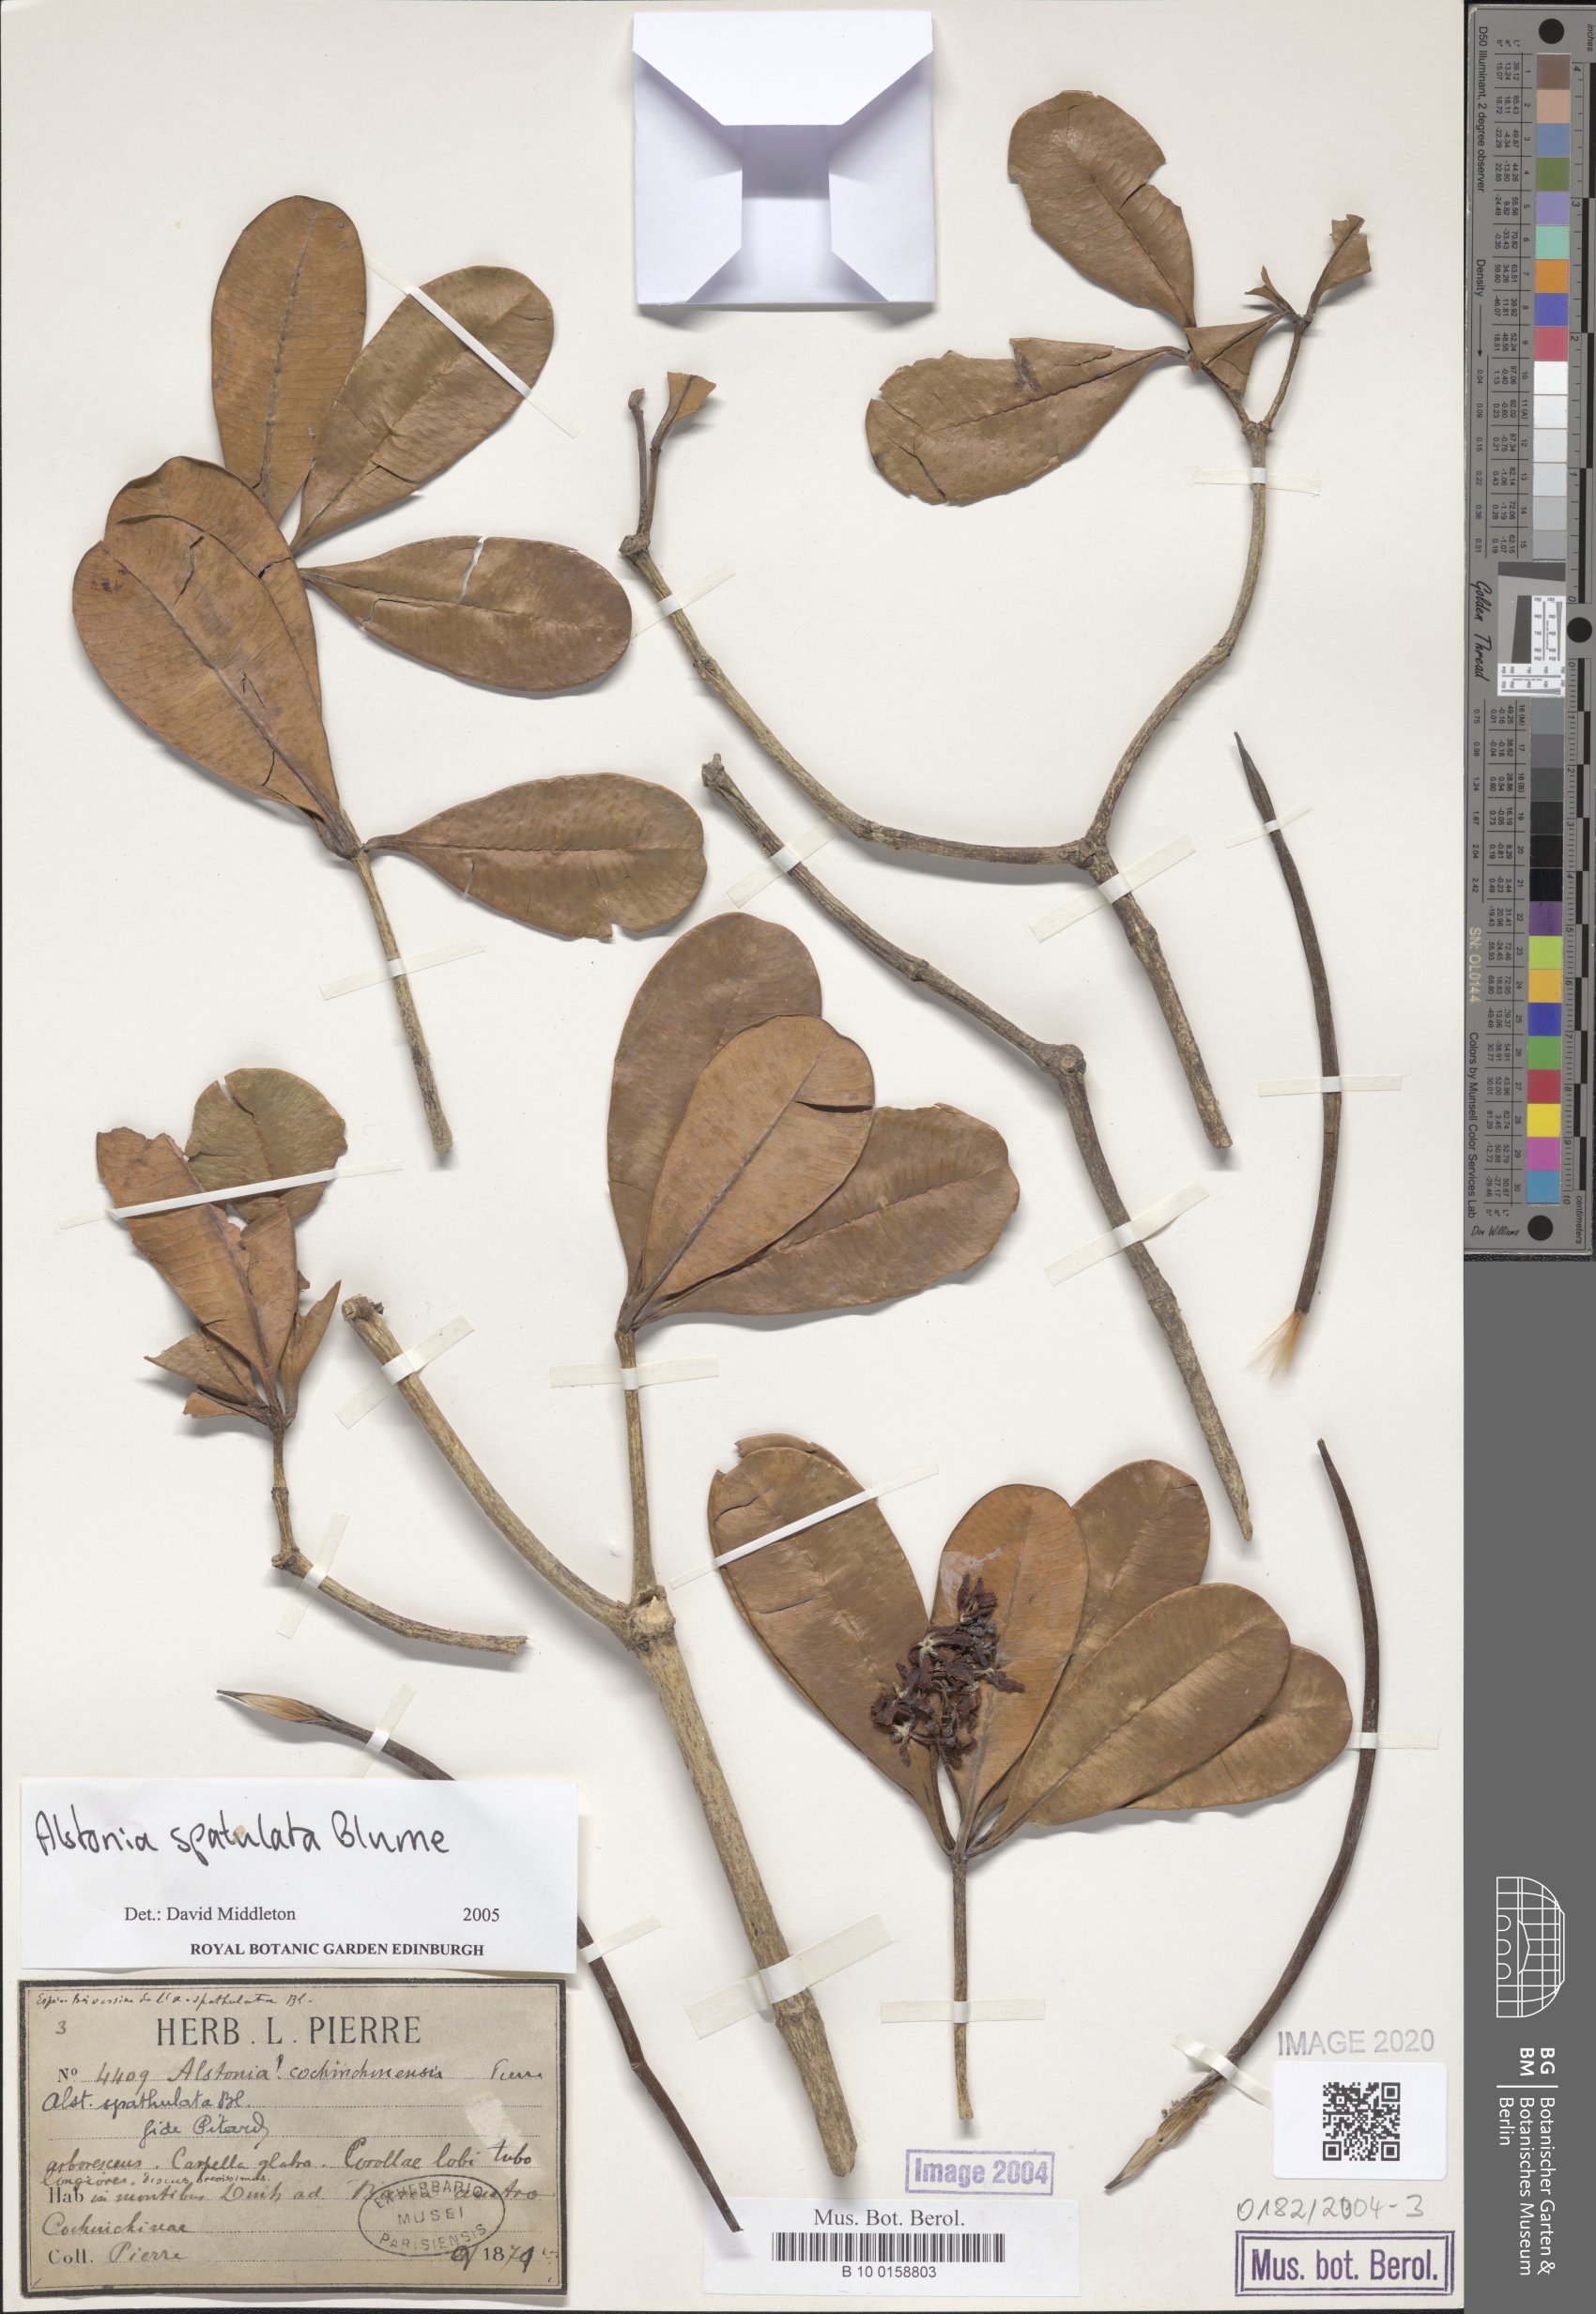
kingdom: Plantae
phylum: Tracheophyta
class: Magnoliopsida
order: Gentianales
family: Apocynaceae
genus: Alstonia
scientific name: Alstonia spatulata
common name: Hard milkwood
